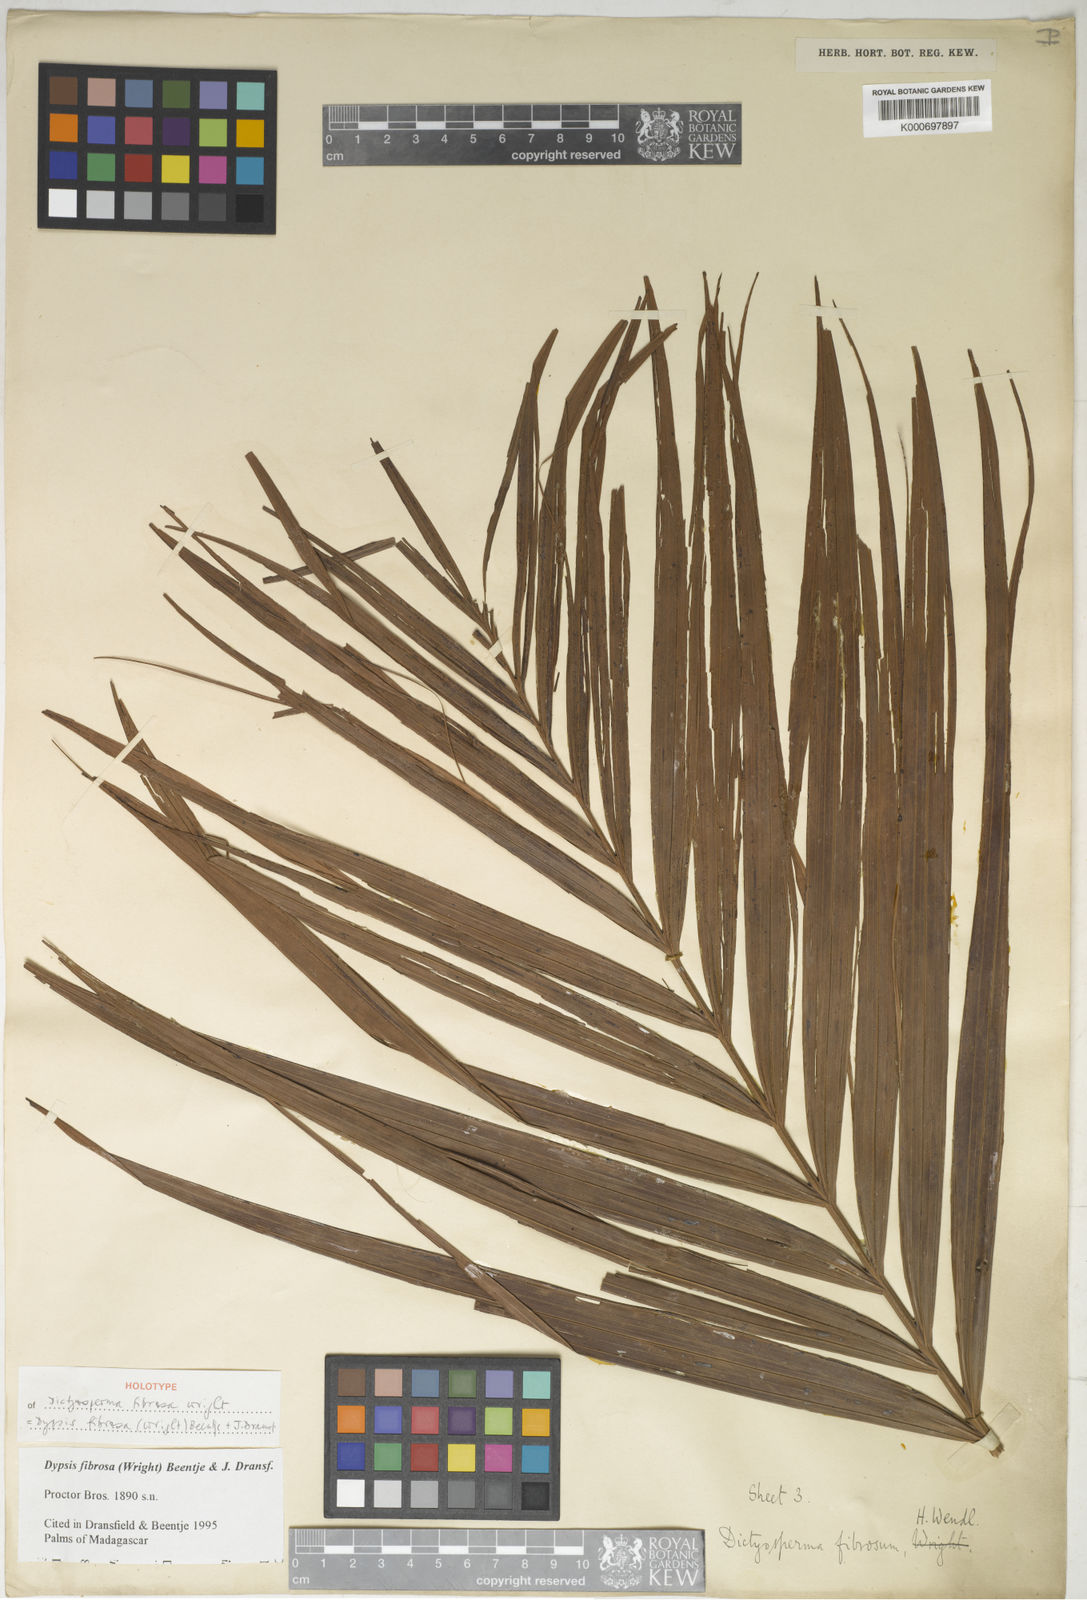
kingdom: Plantae
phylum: Tracheophyta
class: Liliopsida
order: Arecales
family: Arecaceae
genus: Dypsis
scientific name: Dypsis fibrosa
